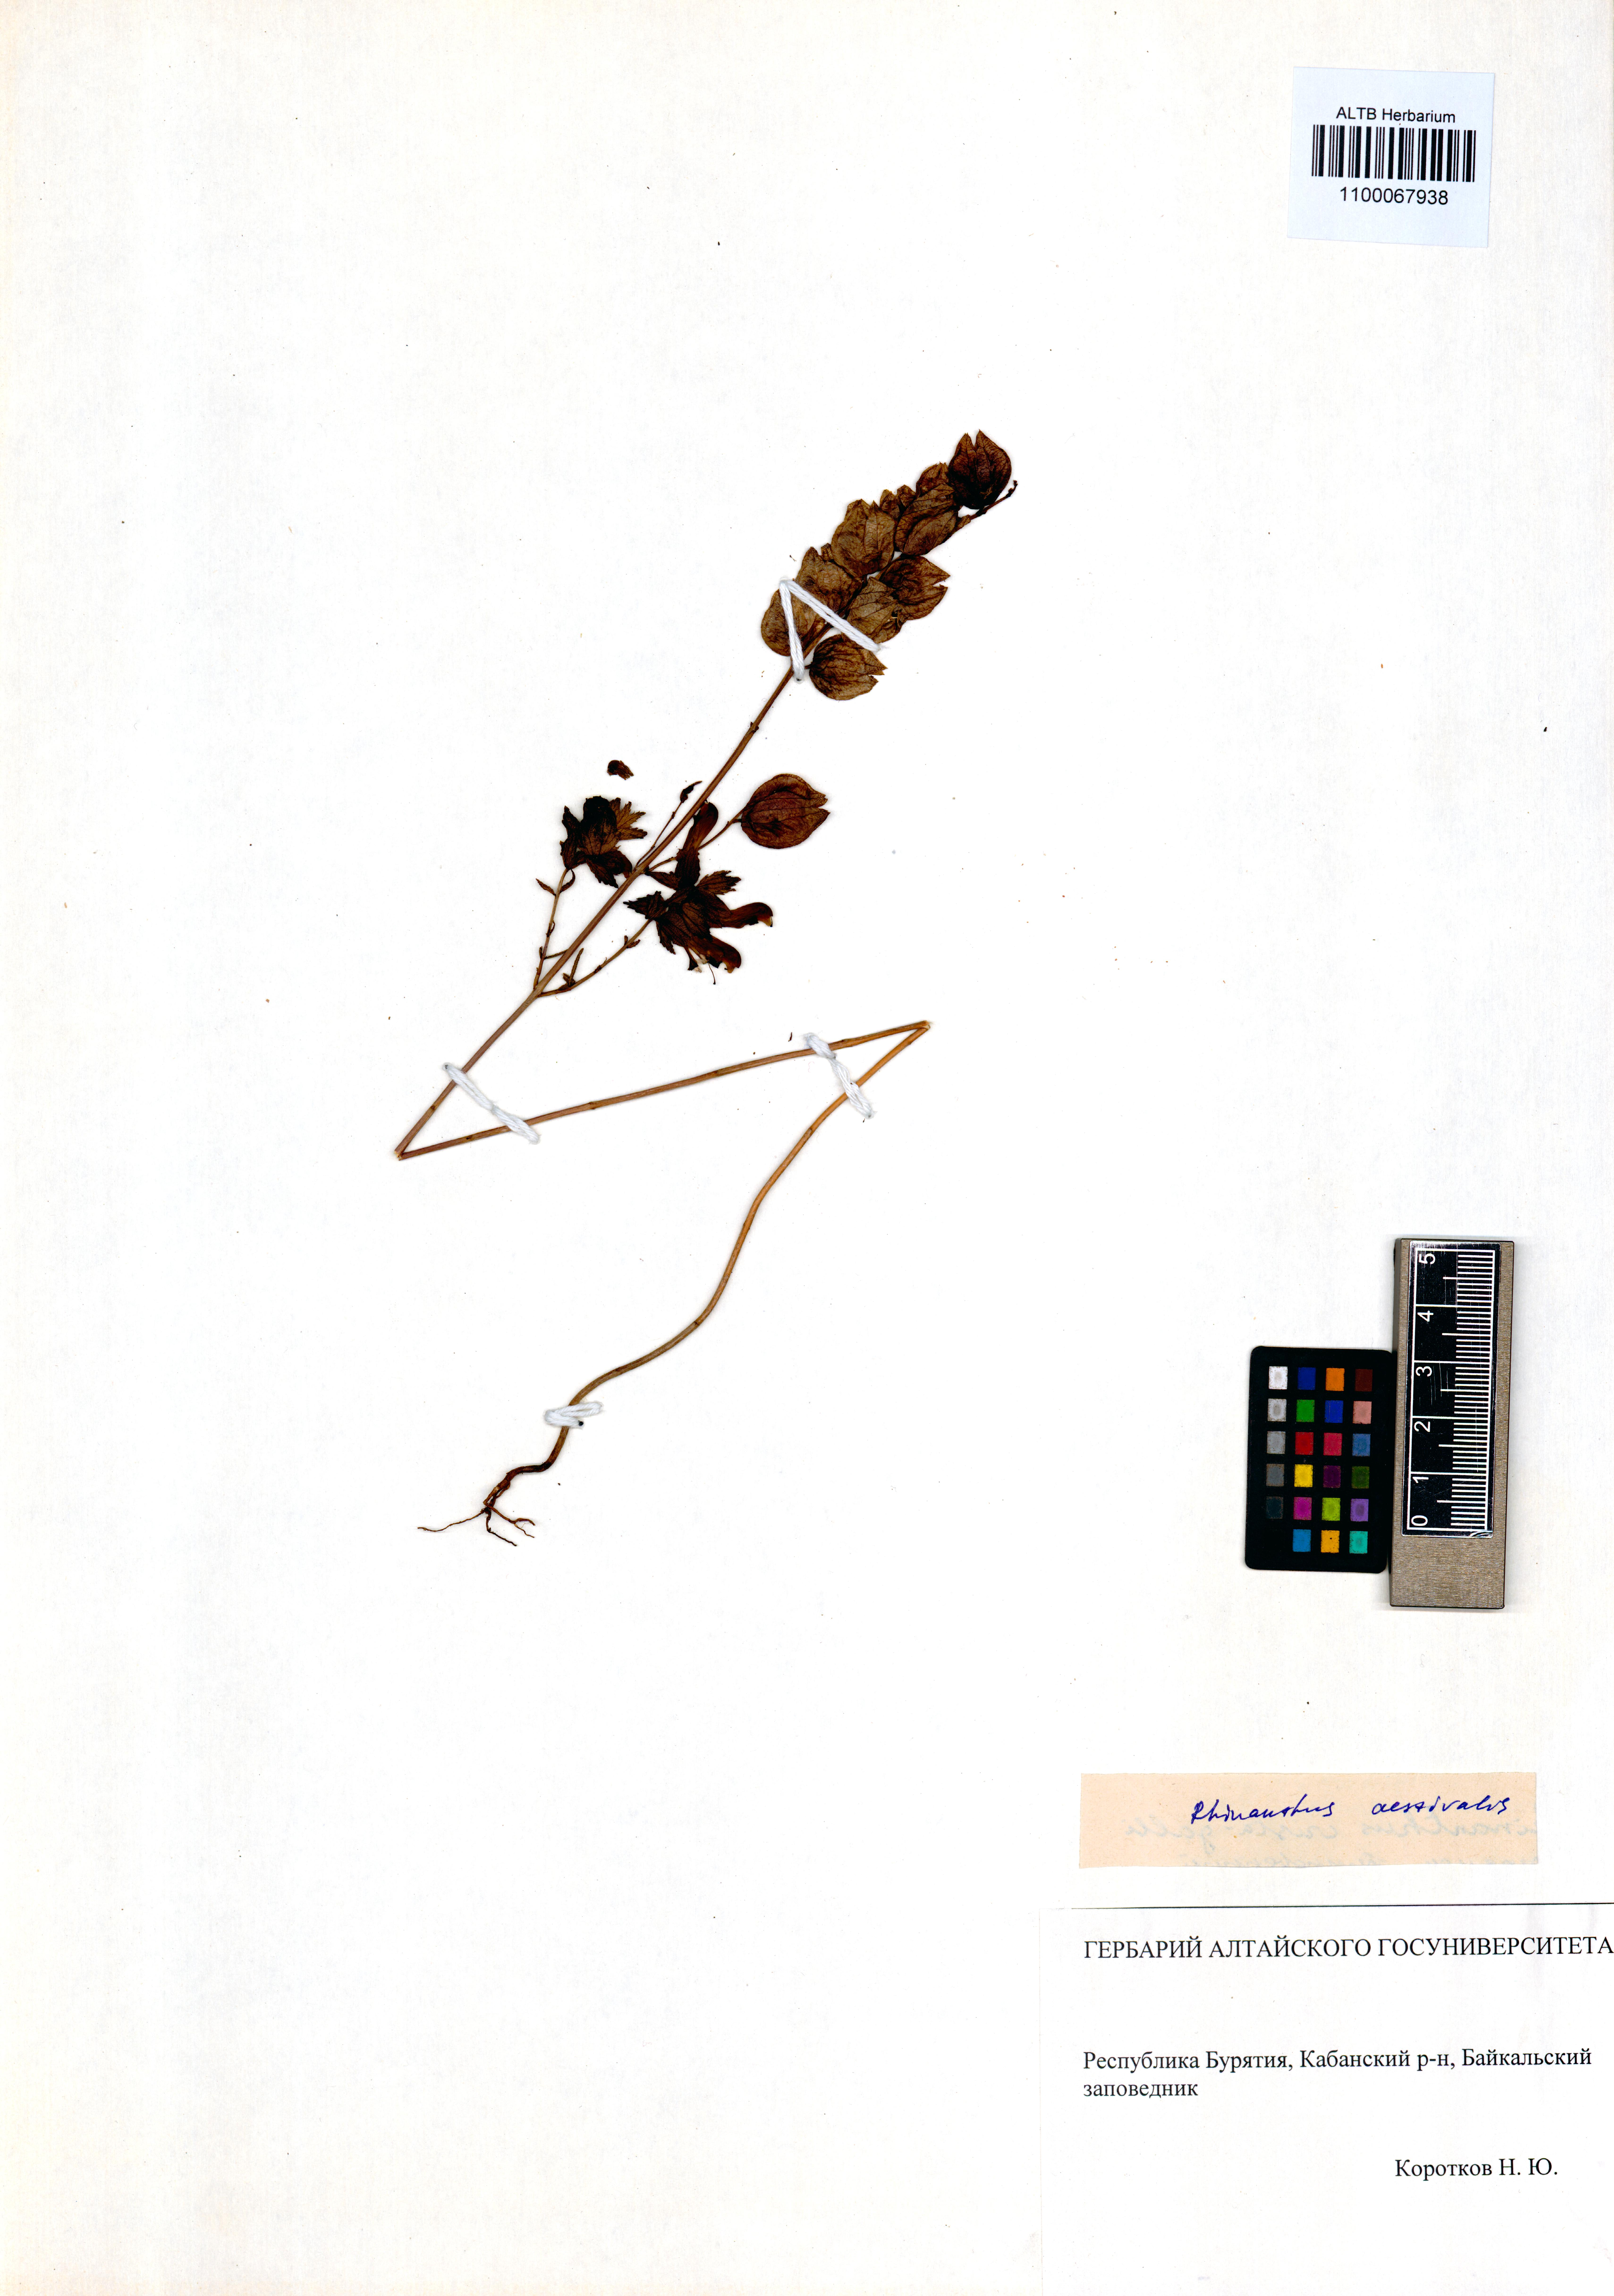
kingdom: Plantae
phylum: Tracheophyta
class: Magnoliopsida
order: Lamiales
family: Orobanchaceae
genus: Rhinanthus
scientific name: Rhinanthus serotinus
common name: Late-flowering yellow rattle
